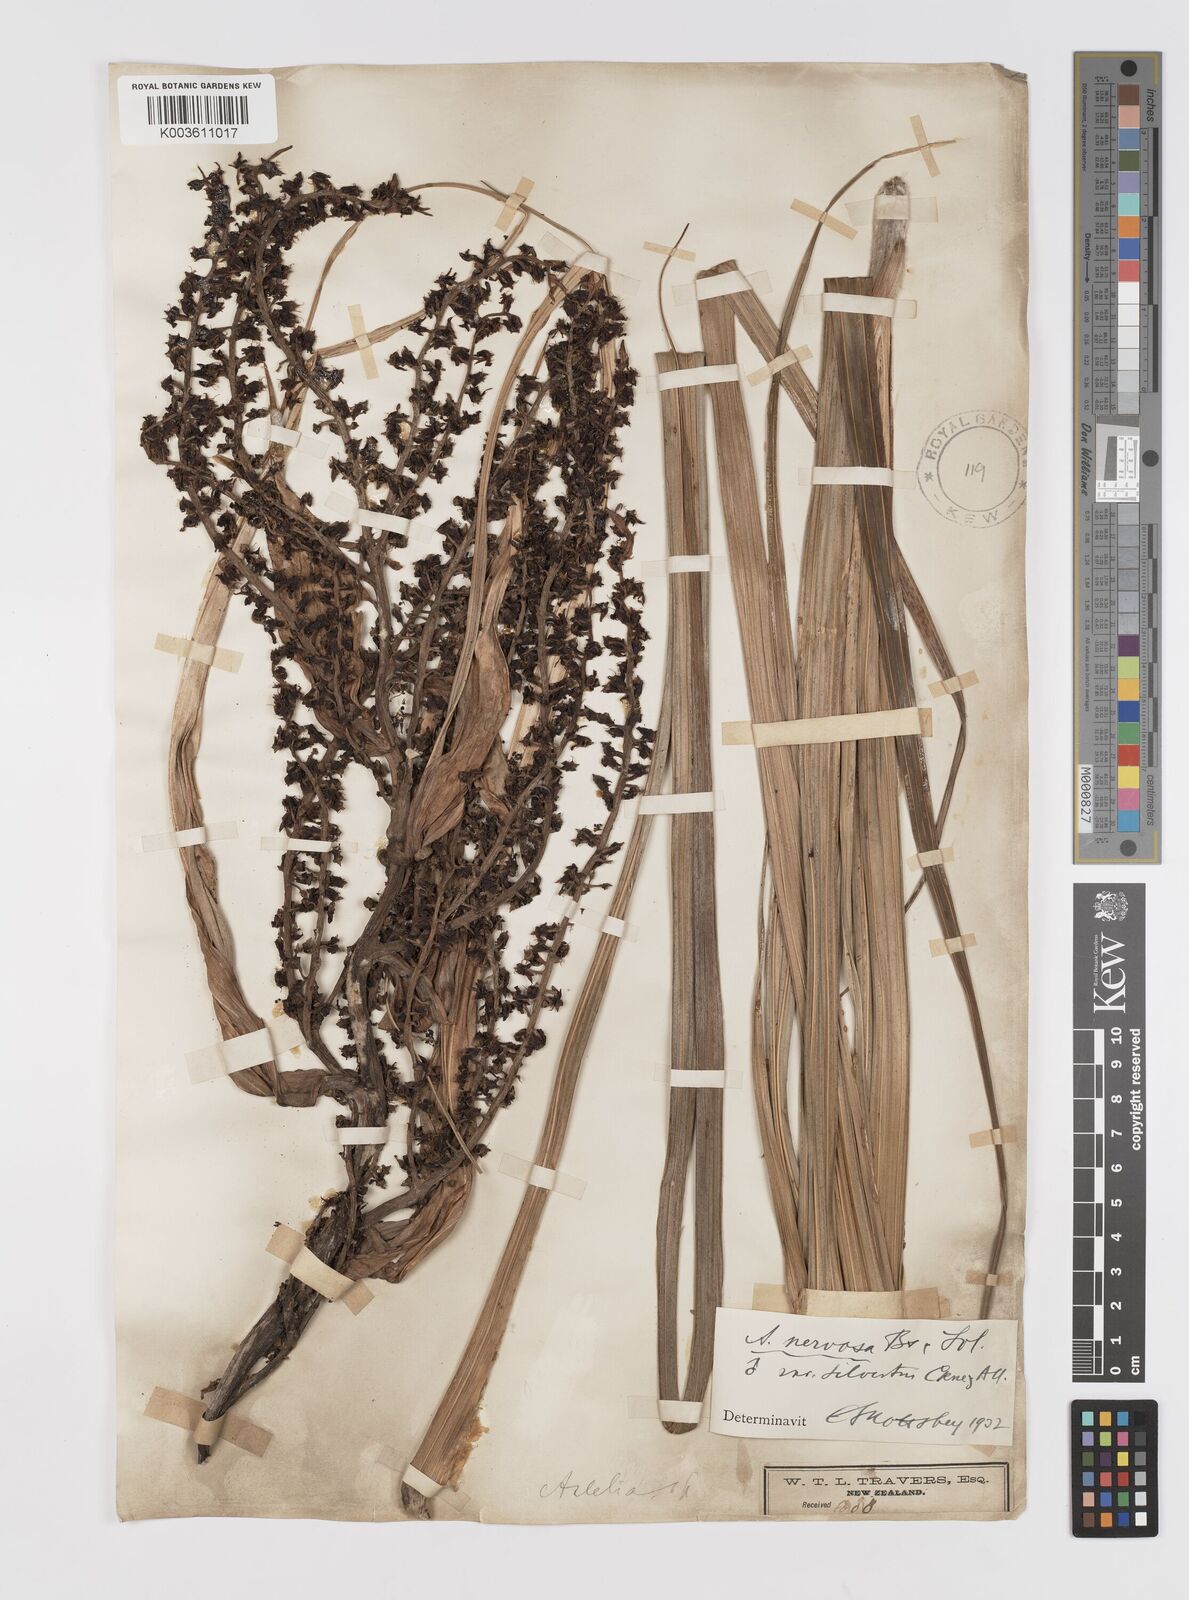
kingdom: Plantae
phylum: Tracheophyta
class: Liliopsida
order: Asparagales
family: Asteliaceae
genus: Astelia
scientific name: Astelia nervosa
